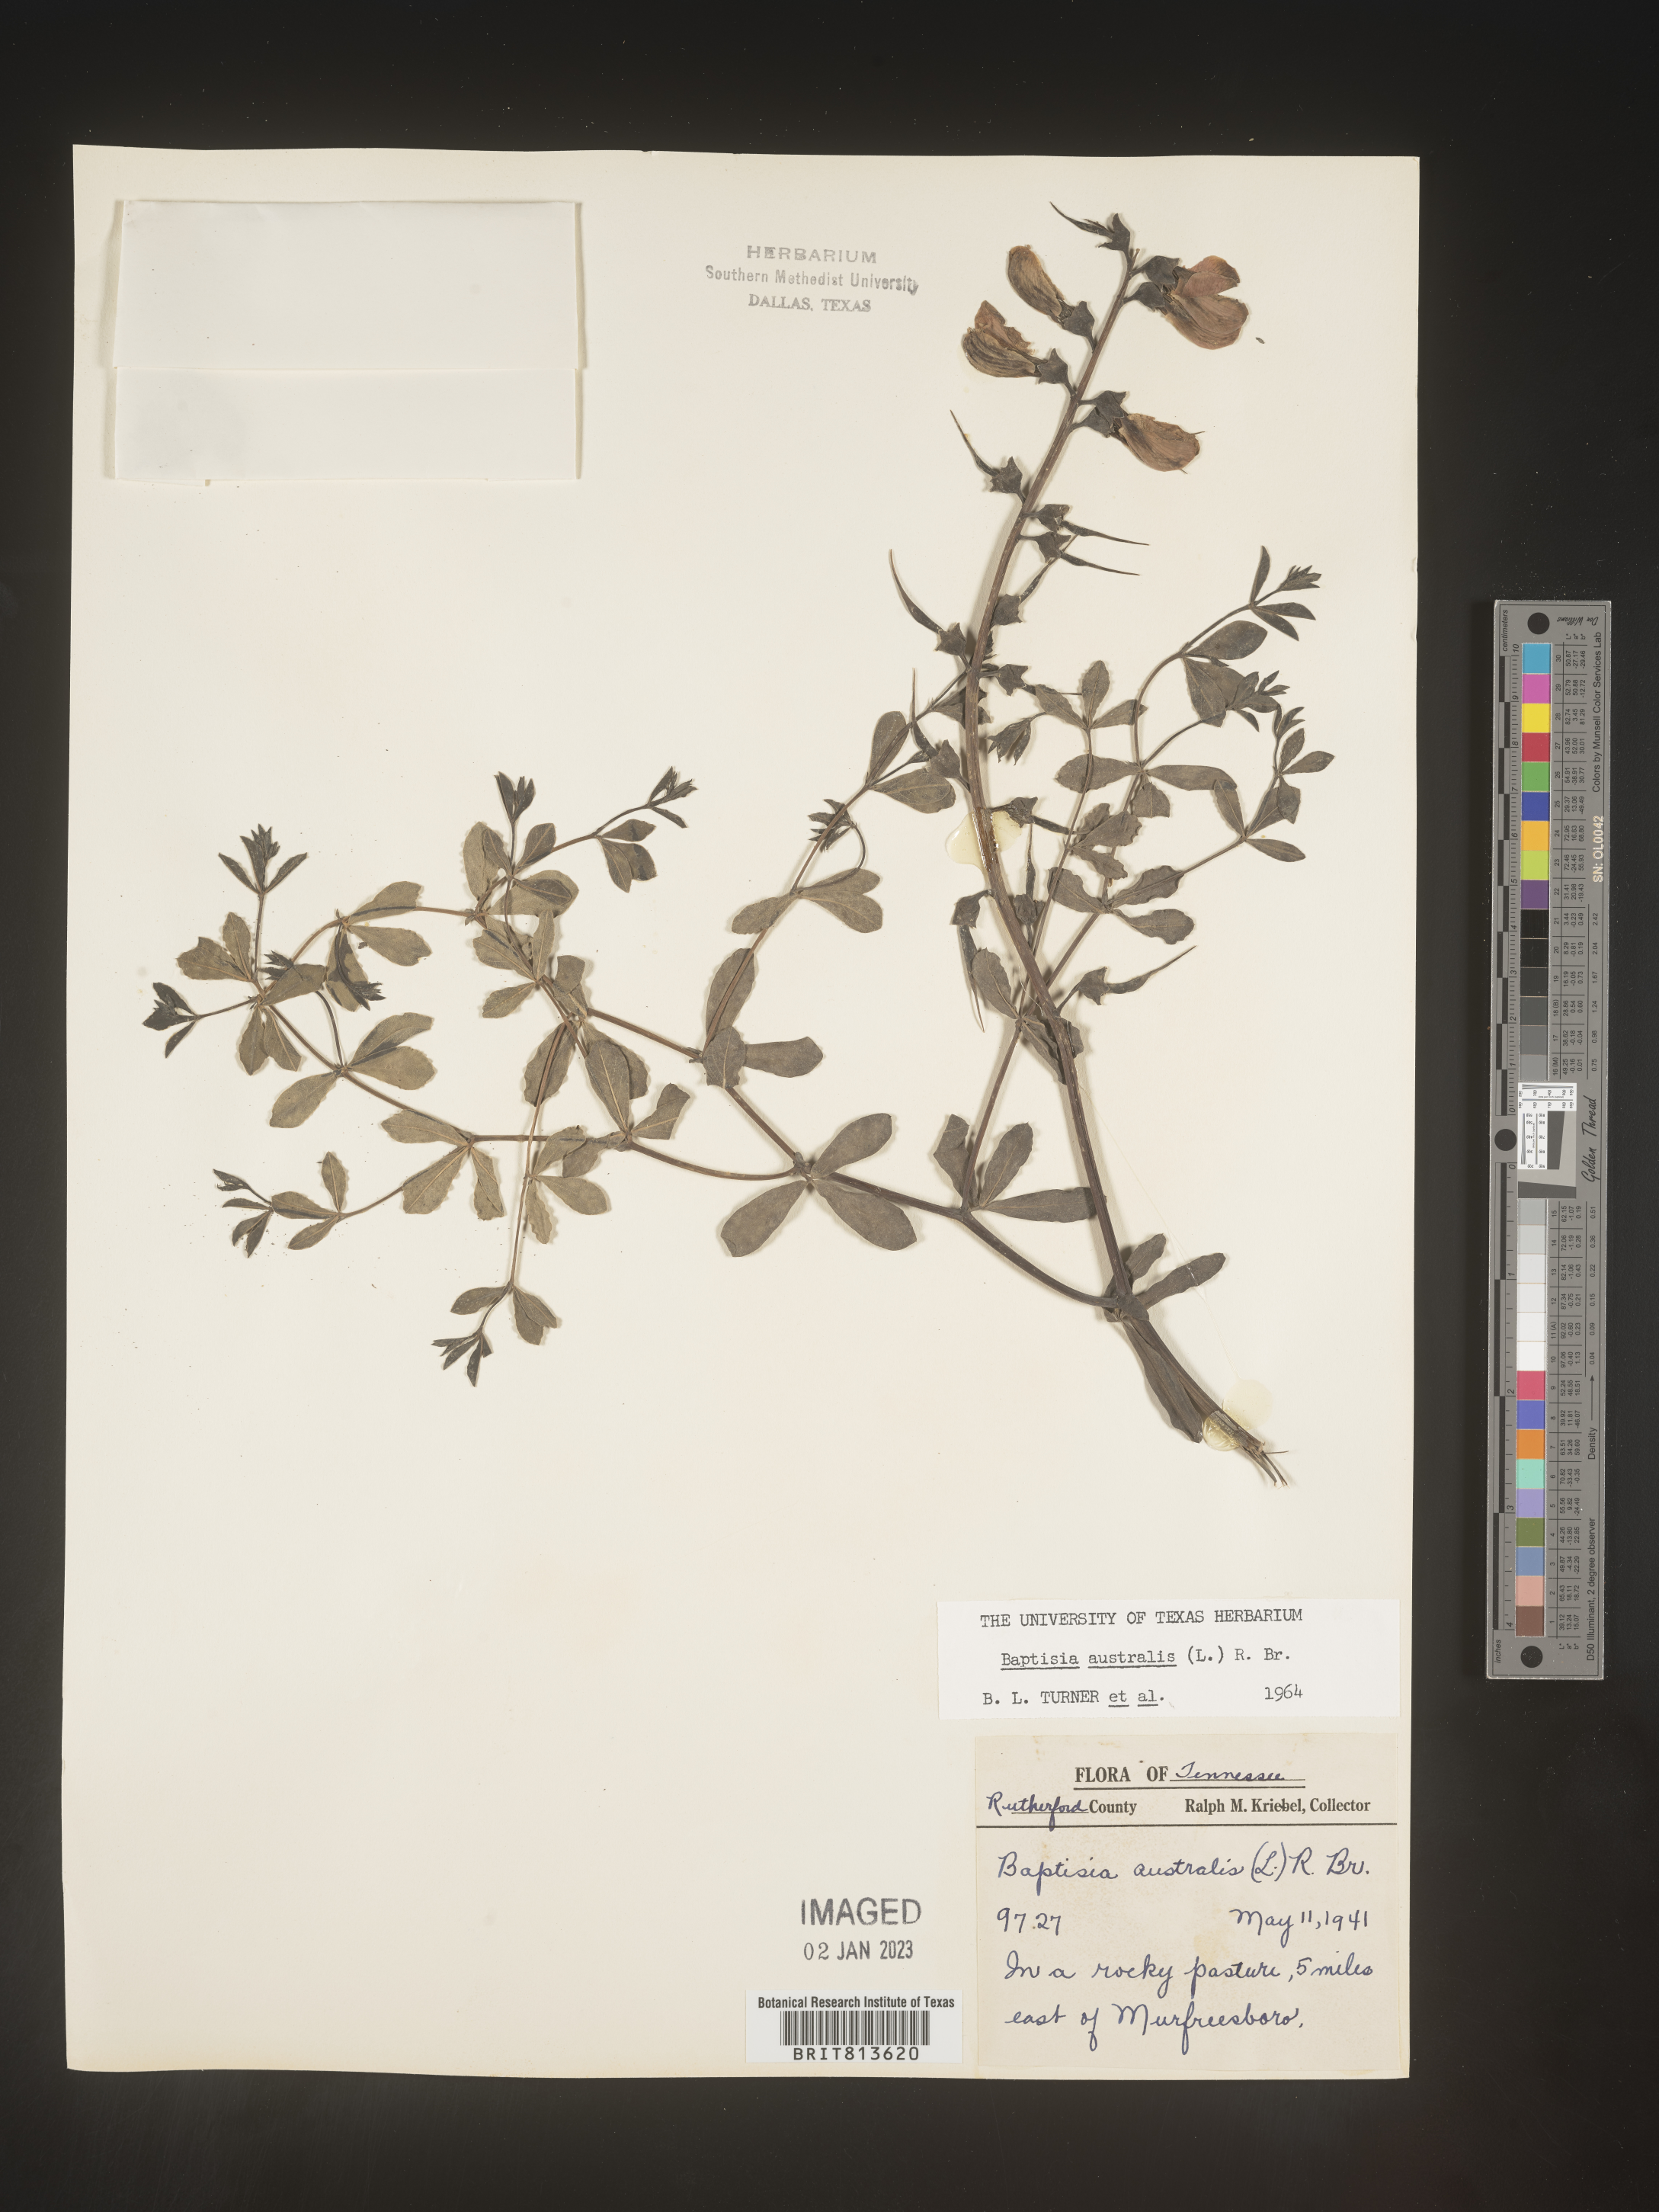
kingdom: Plantae
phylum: Tracheophyta
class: Magnoliopsida
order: Fabales
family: Fabaceae
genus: Baptisia
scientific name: Baptisia australis
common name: Blue false indigo
